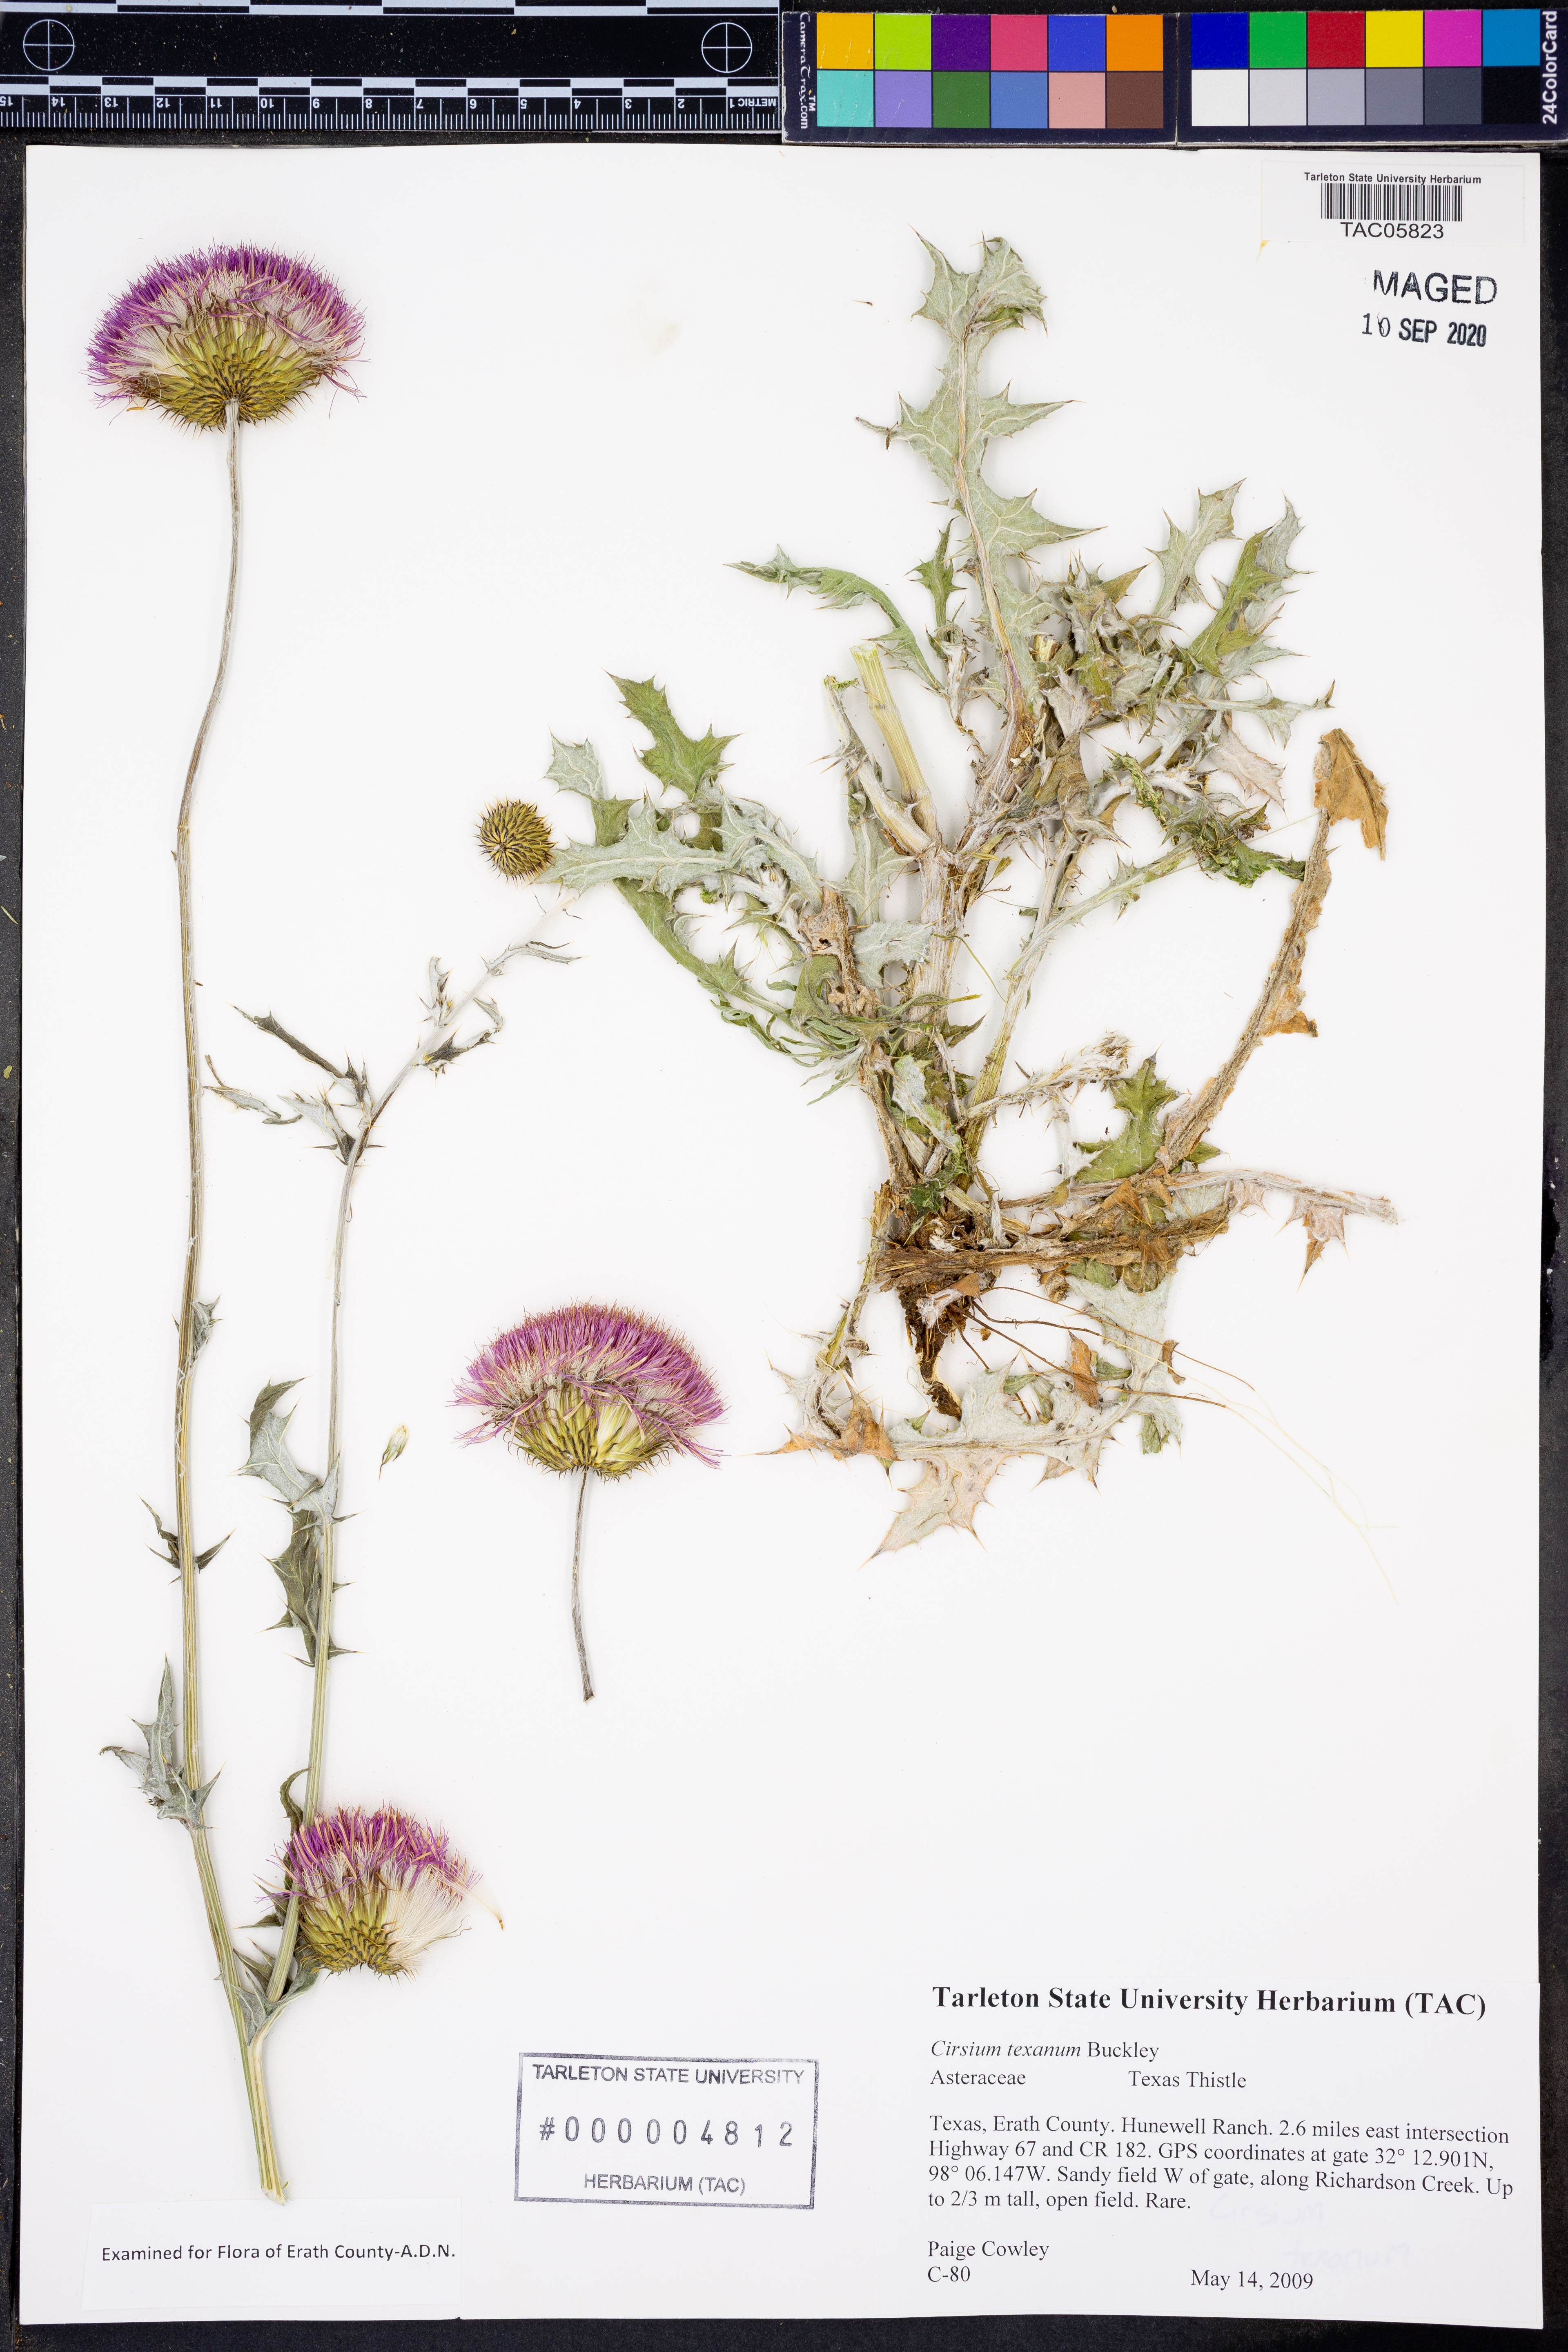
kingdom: Plantae
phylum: Tracheophyta
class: Magnoliopsida
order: Asterales
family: Asteraceae
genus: Cirsium
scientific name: Cirsium texanum
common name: Texas purple thistle
